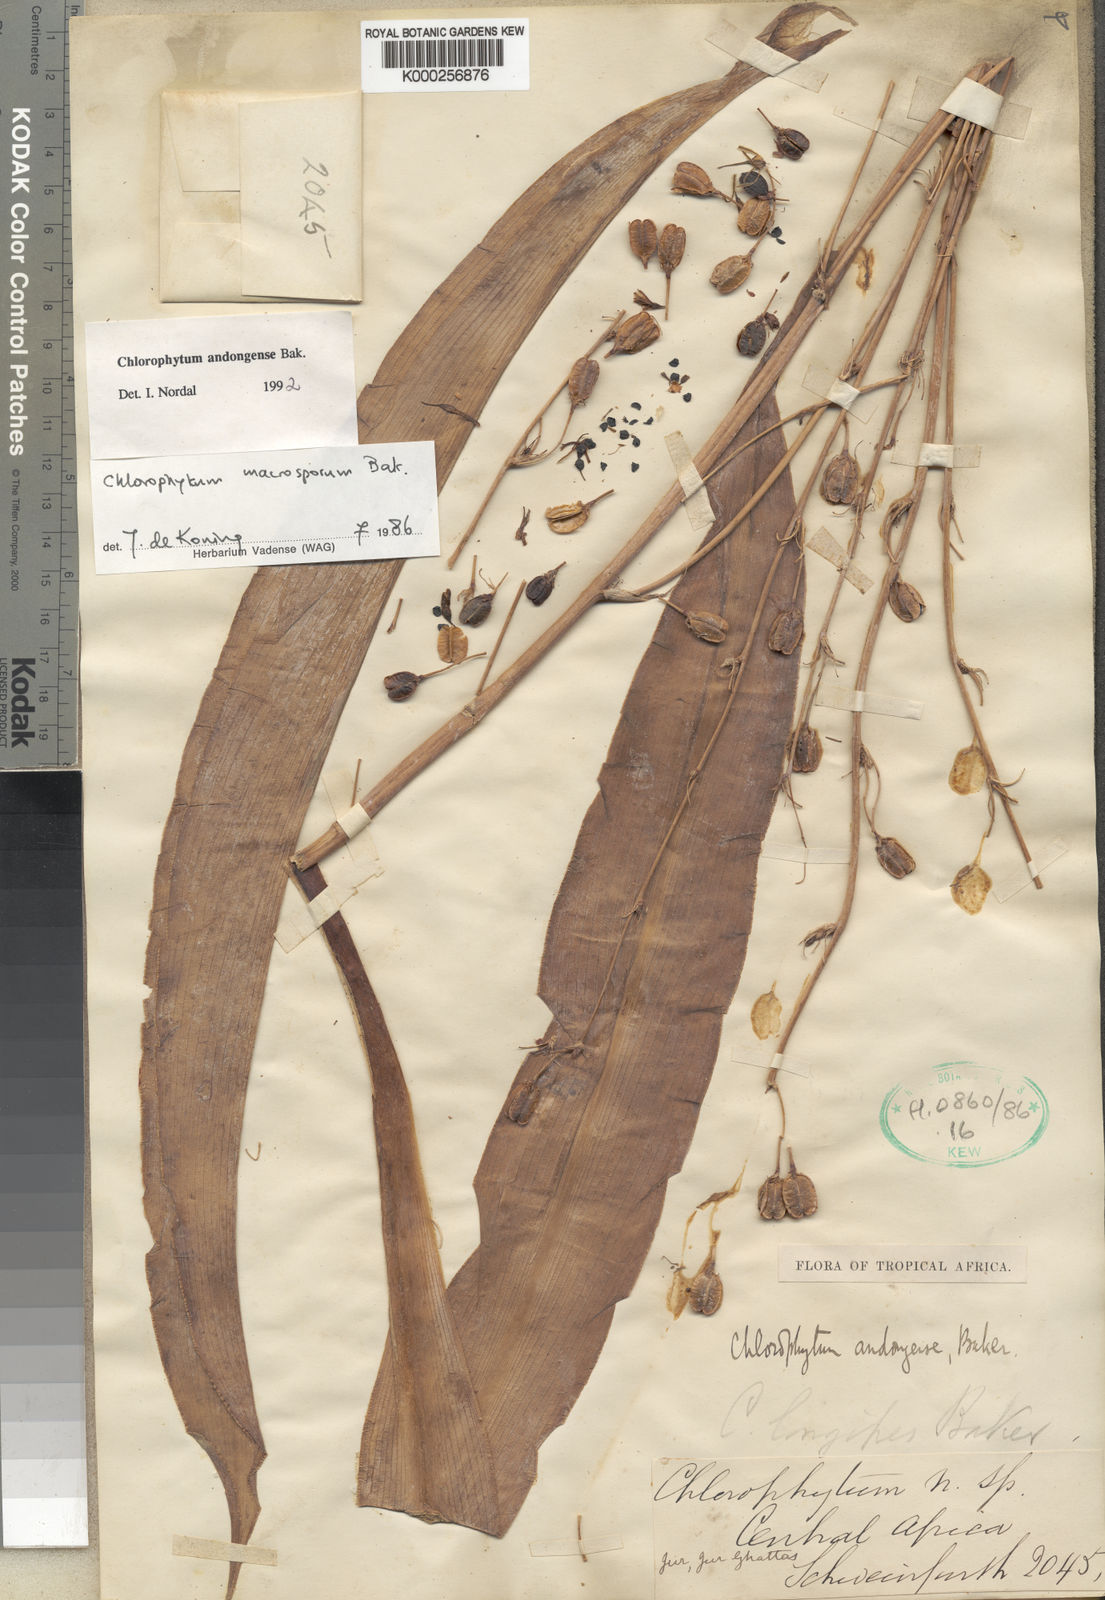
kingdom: Plantae
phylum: Tracheophyta
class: Liliopsida
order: Asparagales
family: Asparagaceae
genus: Chlorophytum
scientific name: Chlorophytum andongense
